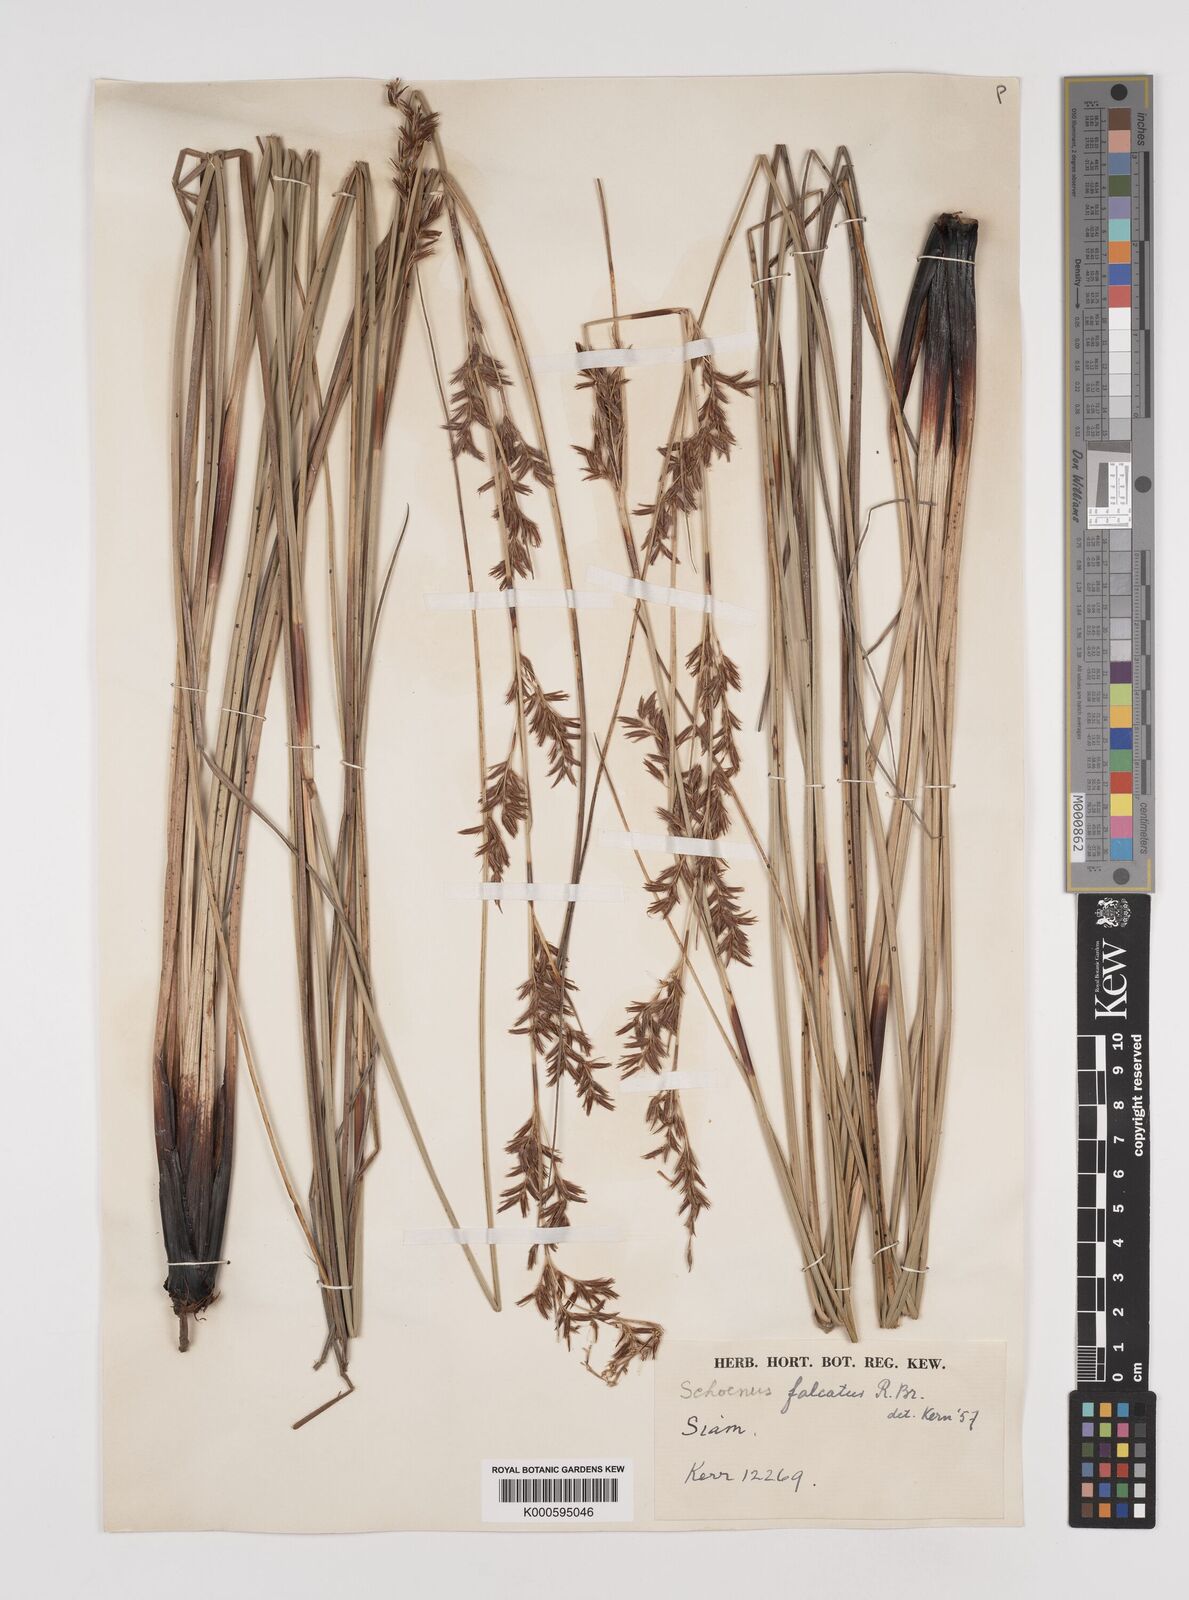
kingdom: Plantae
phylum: Tracheophyta
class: Liliopsida
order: Poales
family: Cyperaceae
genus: Schoenus
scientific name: Schoenus falcatus
